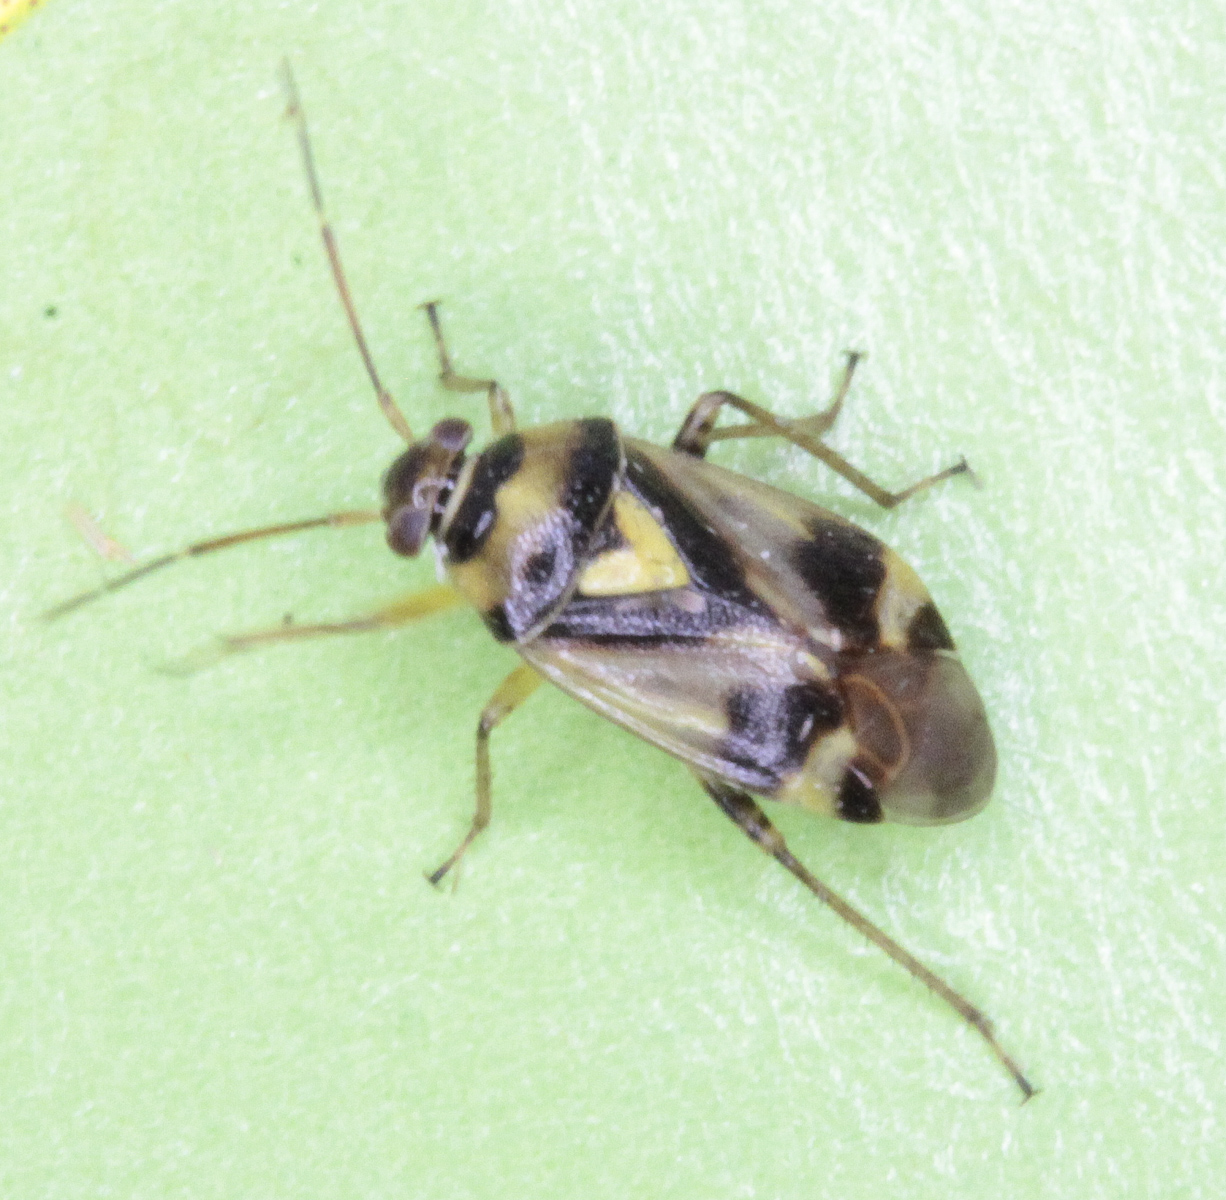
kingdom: Animalia
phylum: Arthropoda
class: Insecta
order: Hemiptera
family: Miridae
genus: Neolygus
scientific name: Neolygus viridis
